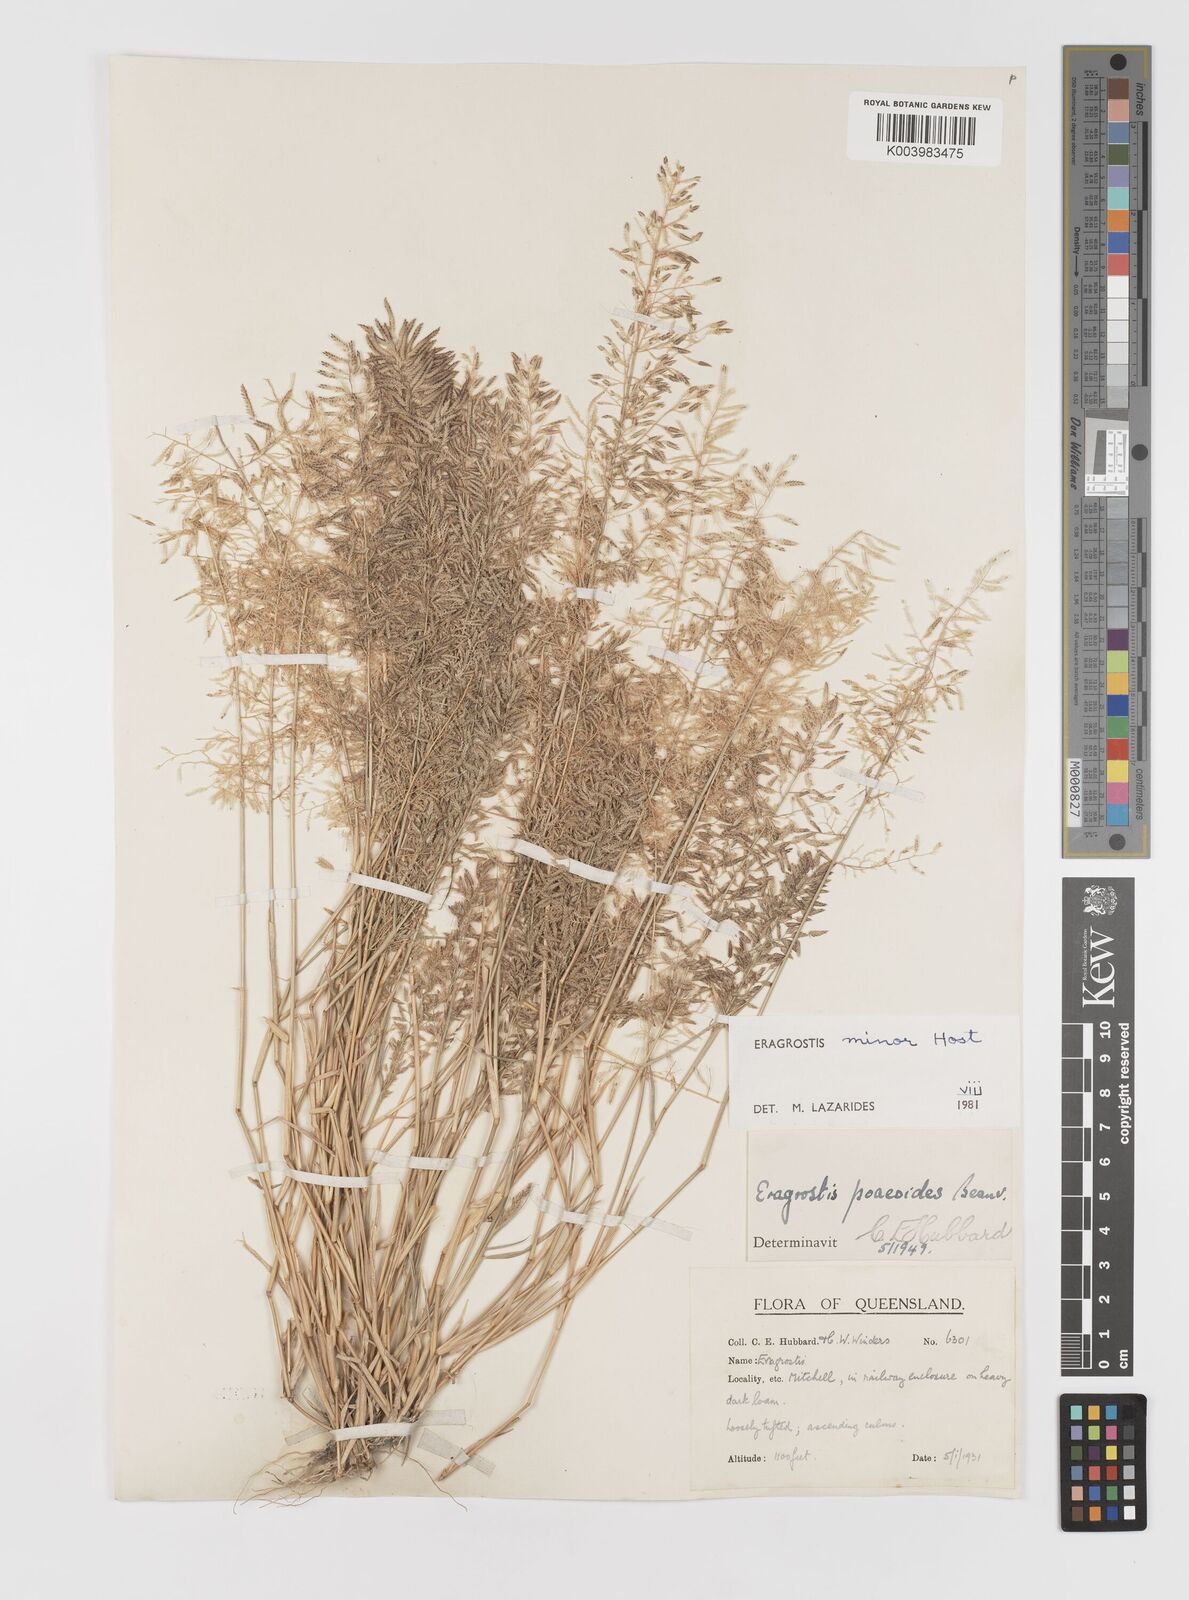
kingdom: Plantae
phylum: Tracheophyta
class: Liliopsida
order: Poales
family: Poaceae
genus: Eragrostis
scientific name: Eragrostis minor
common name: Small love-grass
